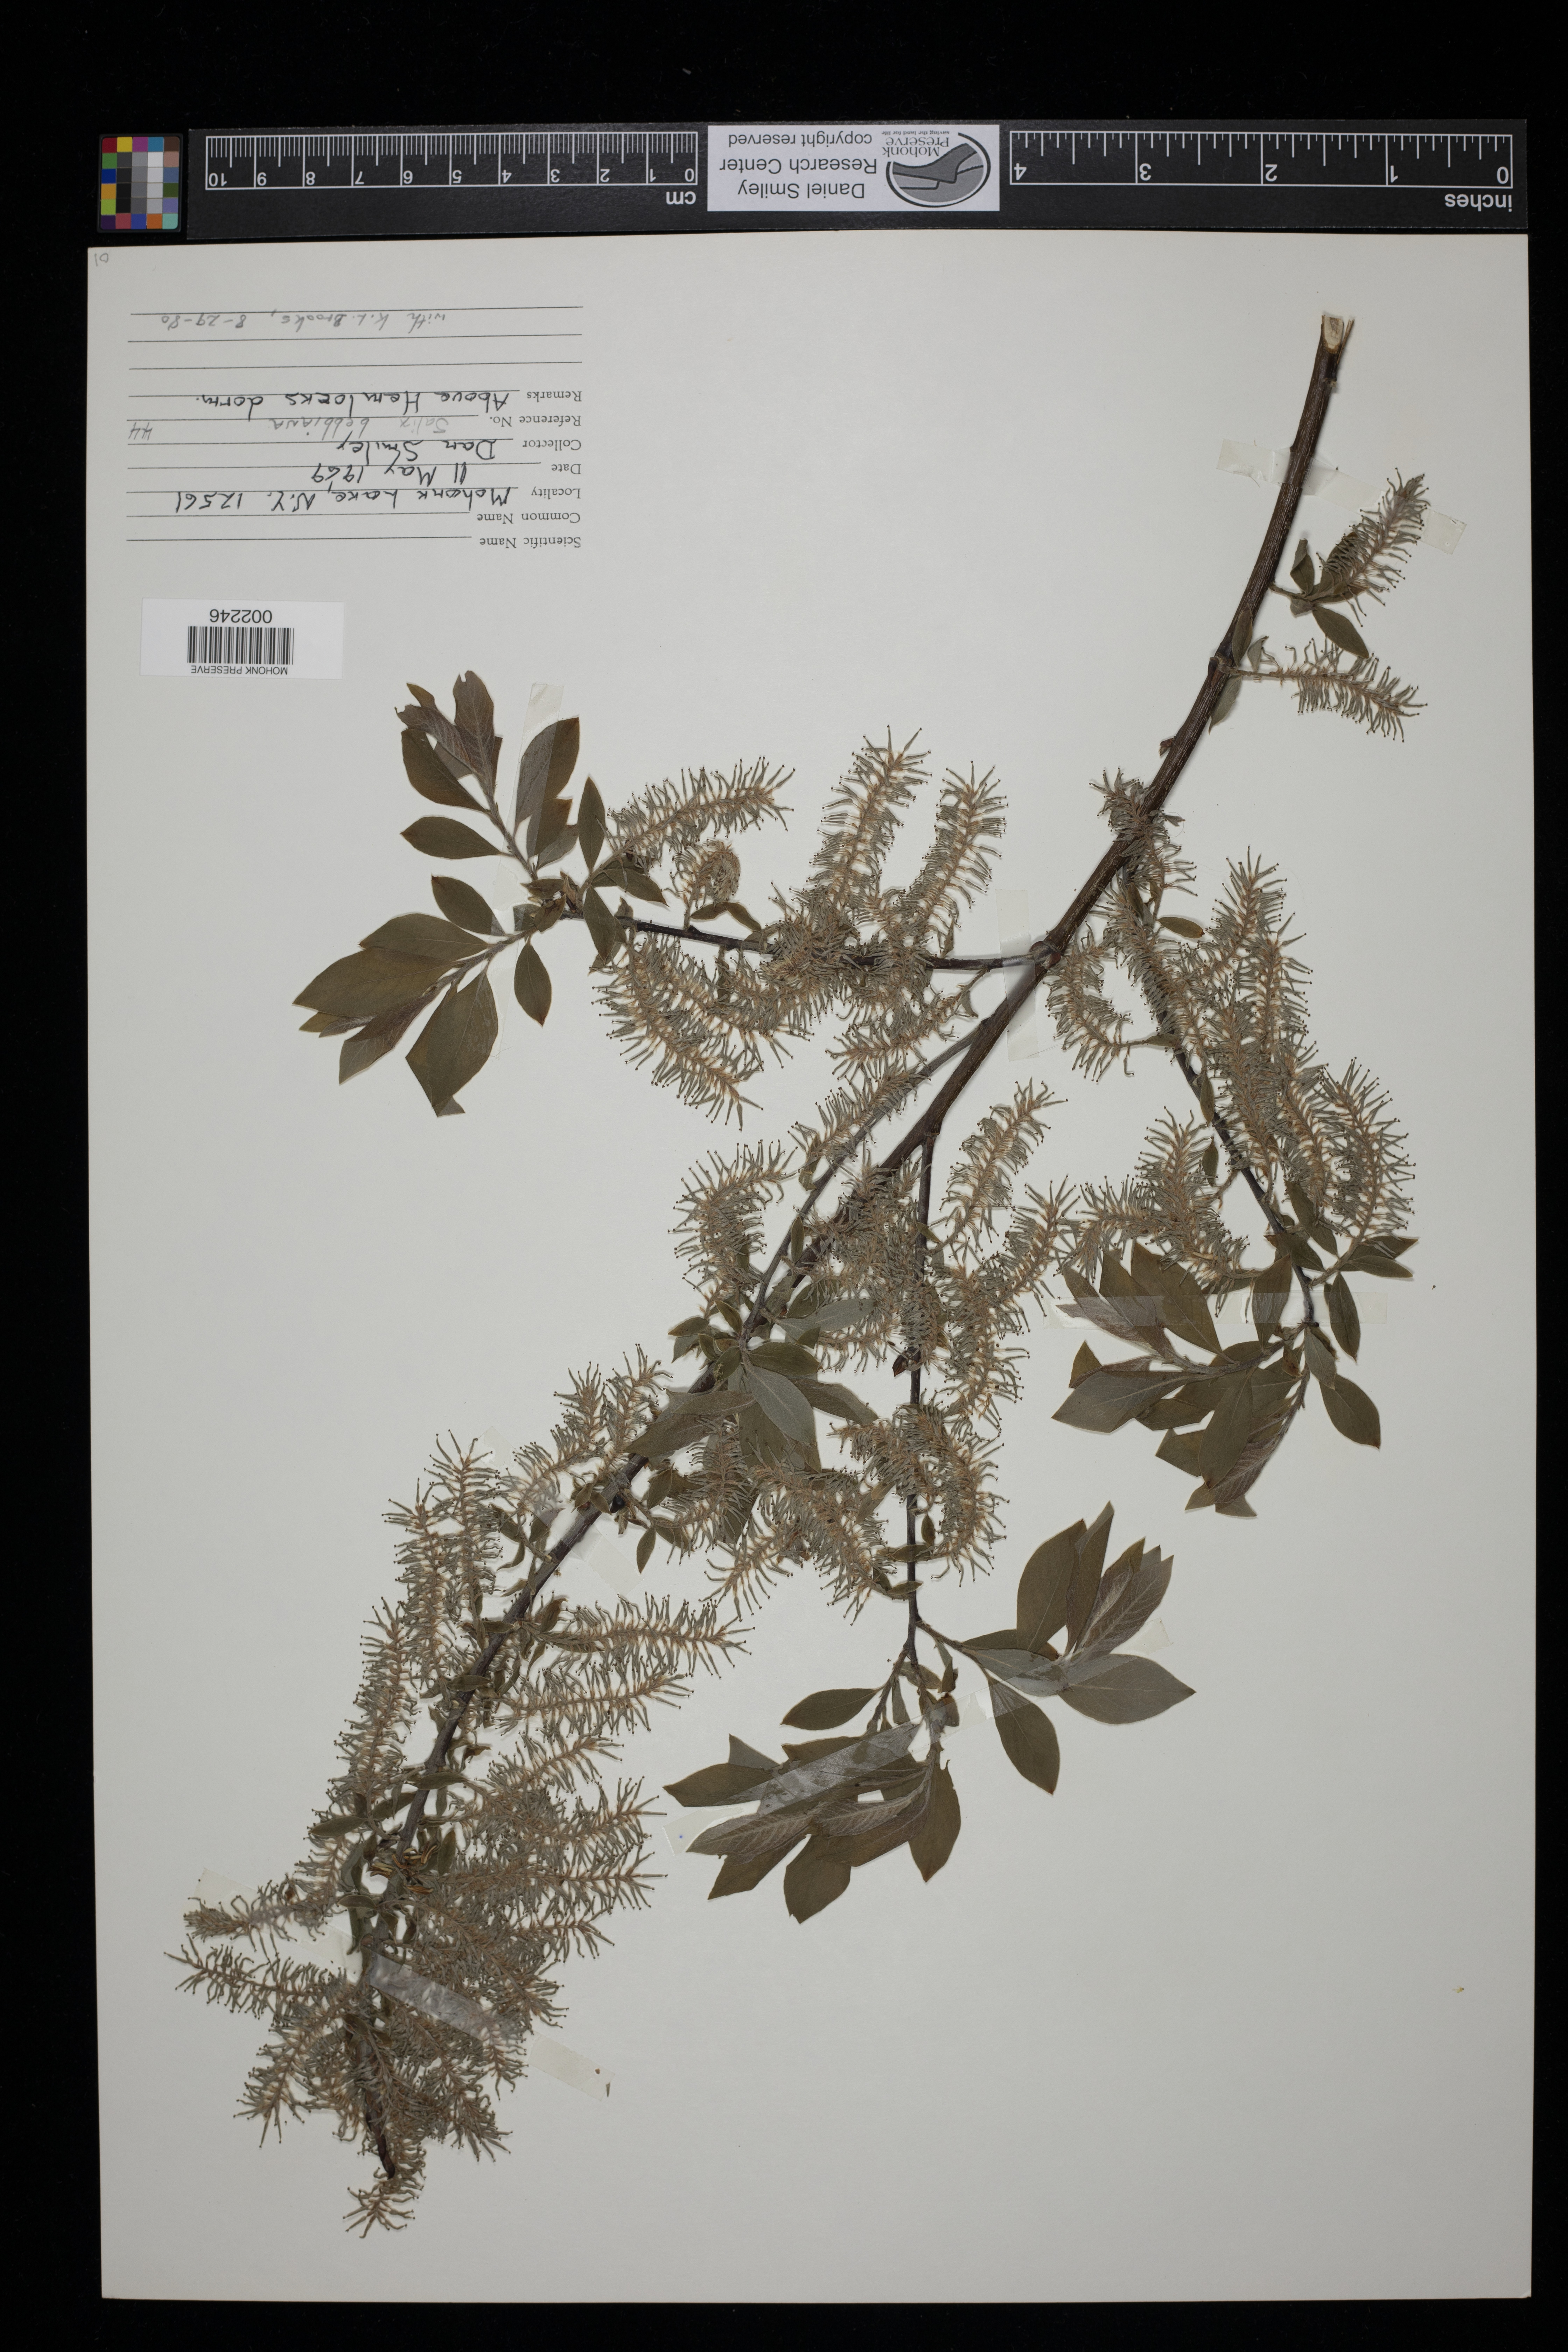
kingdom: Plantae
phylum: Tracheophyta
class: Magnoliopsida
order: Malpighiales
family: Salicaceae
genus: Salix
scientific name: Salix bebbiana
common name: Bebb's willow
